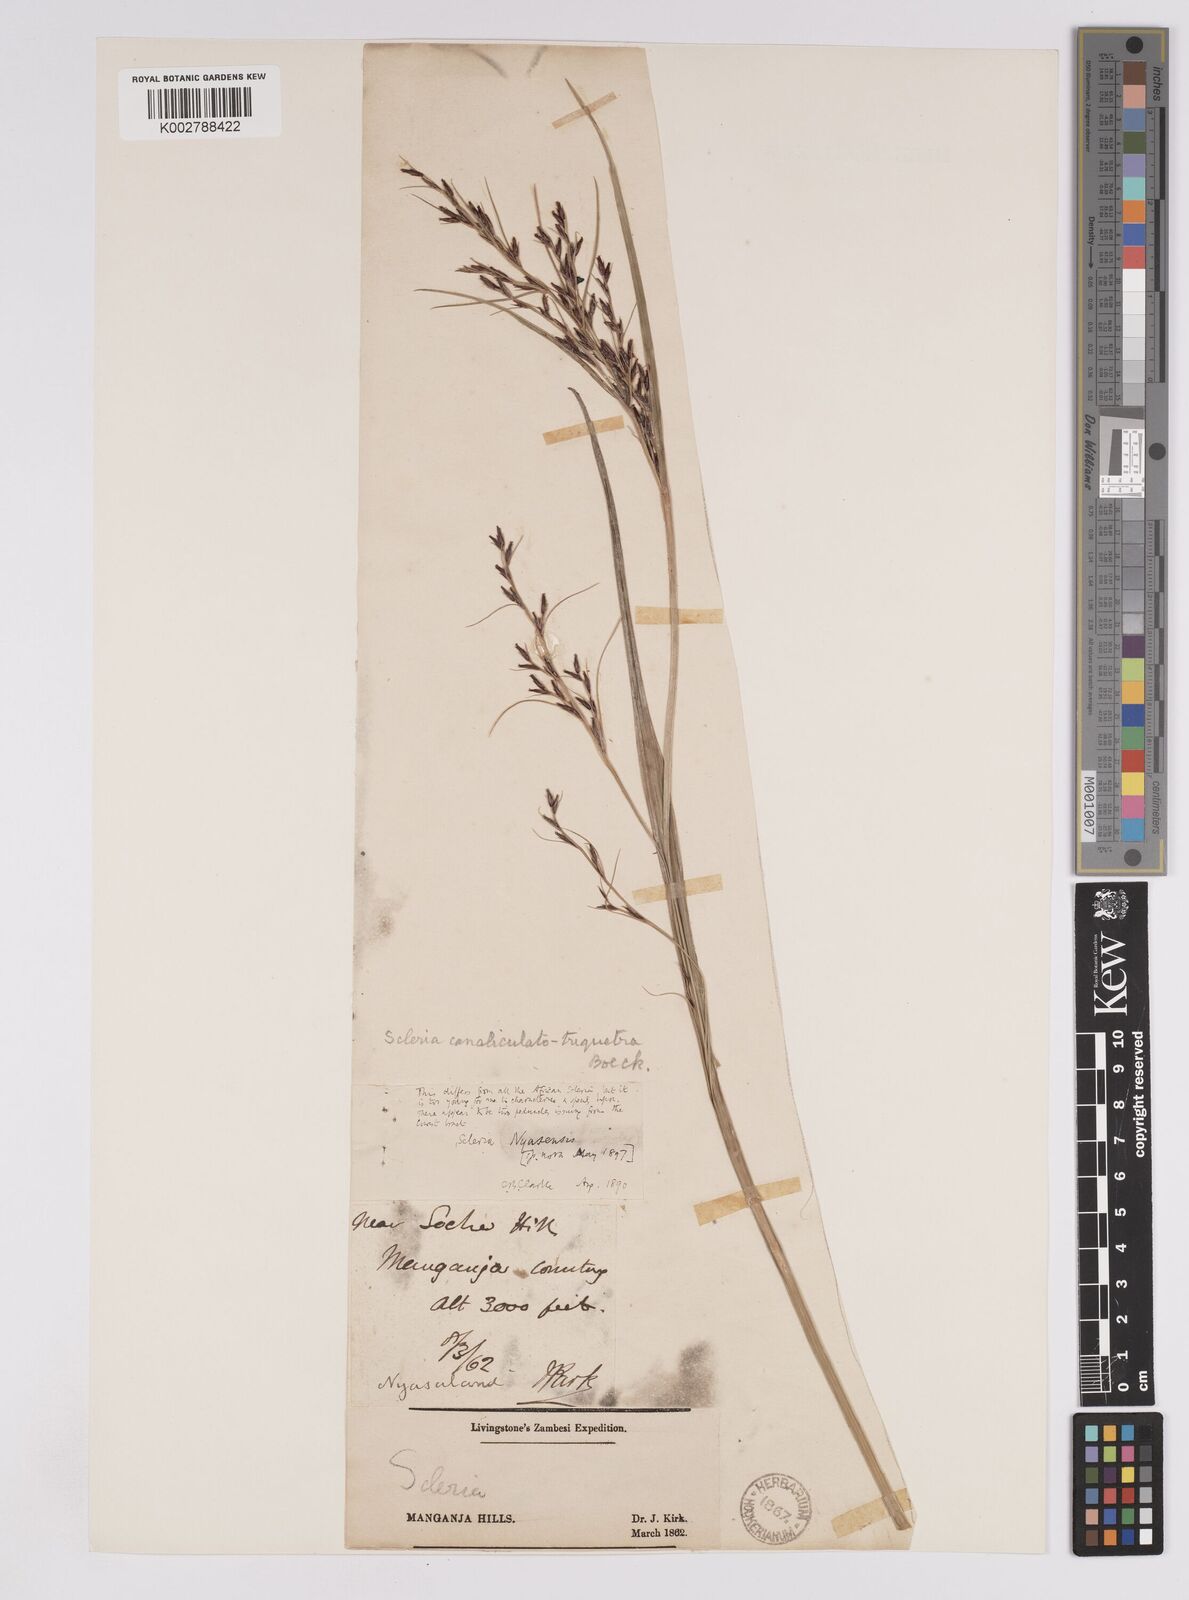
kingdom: Plantae
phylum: Tracheophyta
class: Liliopsida
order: Poales
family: Cyperaceae
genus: Scleria
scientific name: Scleria lagoensis
